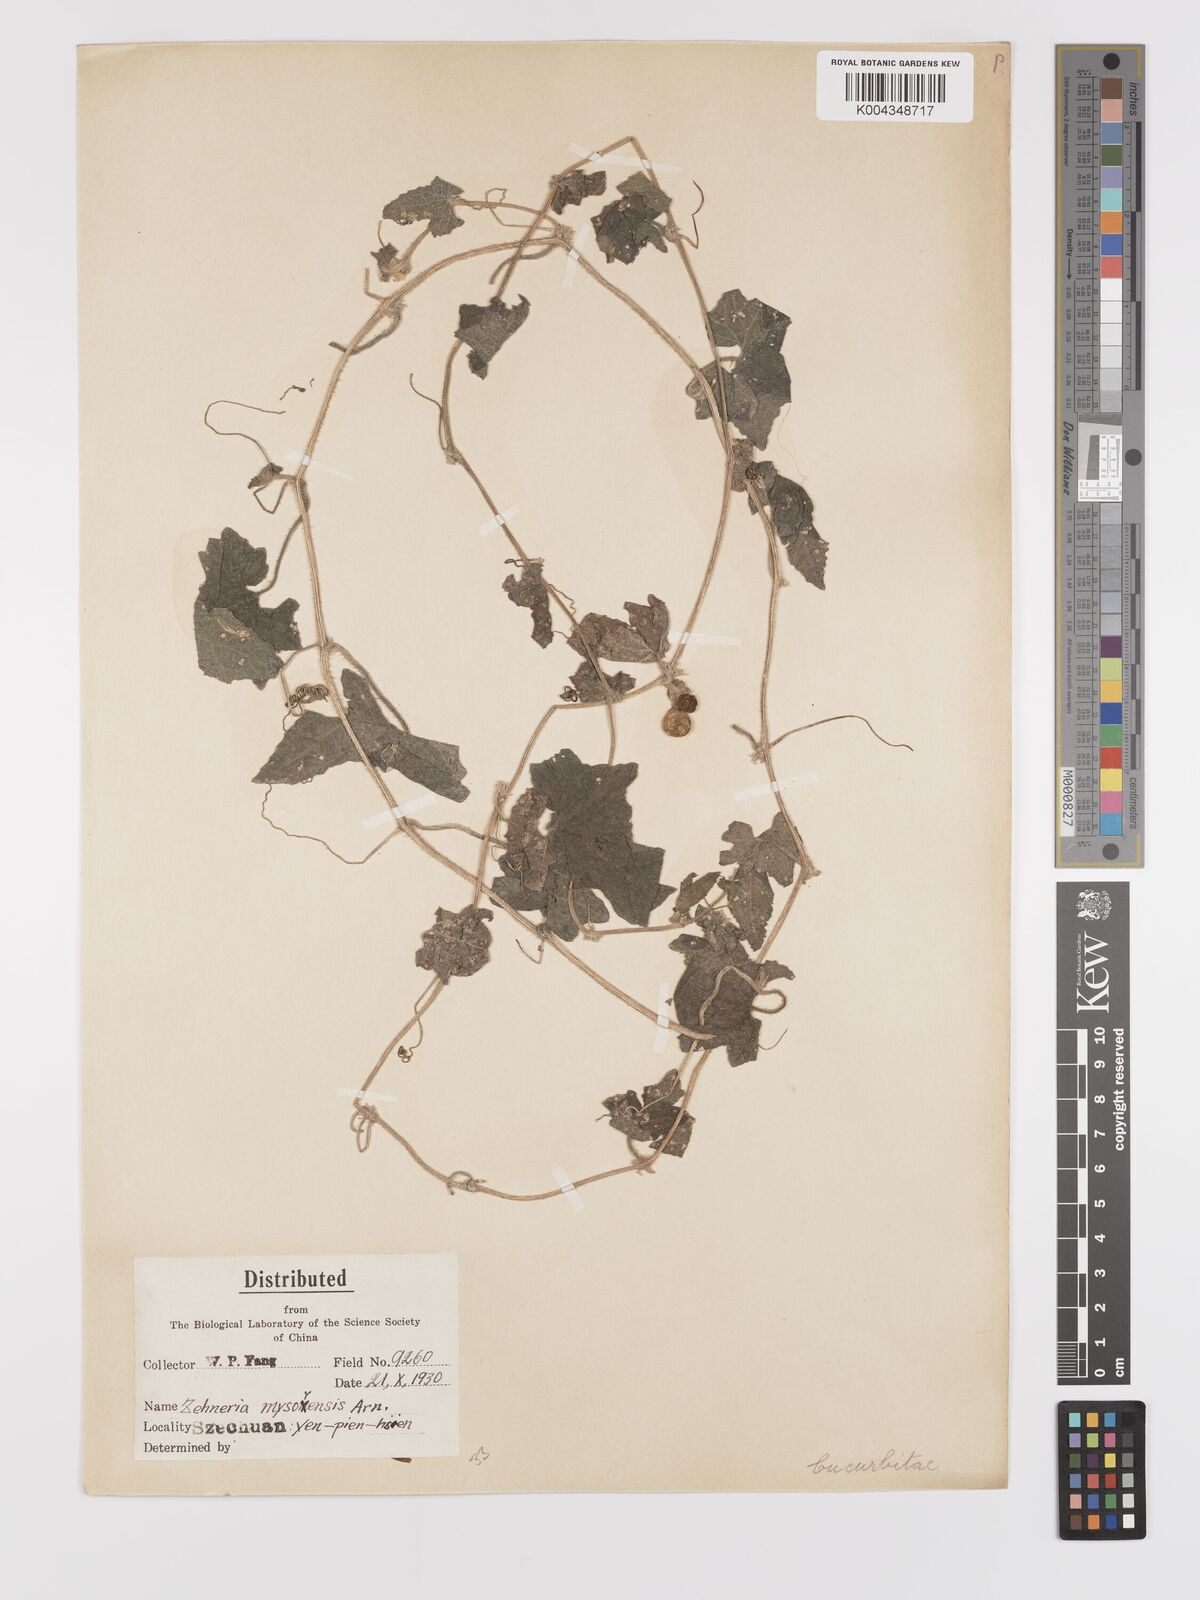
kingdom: Plantae
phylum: Tracheophyta
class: Magnoliopsida
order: Cucurbitales
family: Cucurbitaceae
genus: Cucumis
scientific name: Cucumis maderaspatanus
